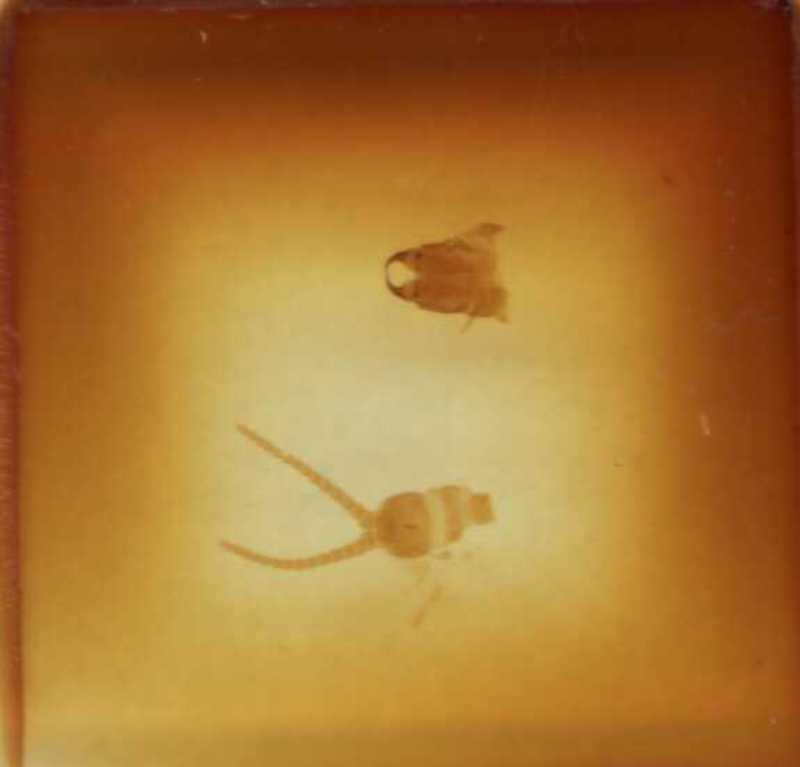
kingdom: Animalia
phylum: Arthropoda
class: Chilopoda
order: Geophilomorpha
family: Aphilodontidae
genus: Aphilodon
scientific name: Aphilodon brevipes
